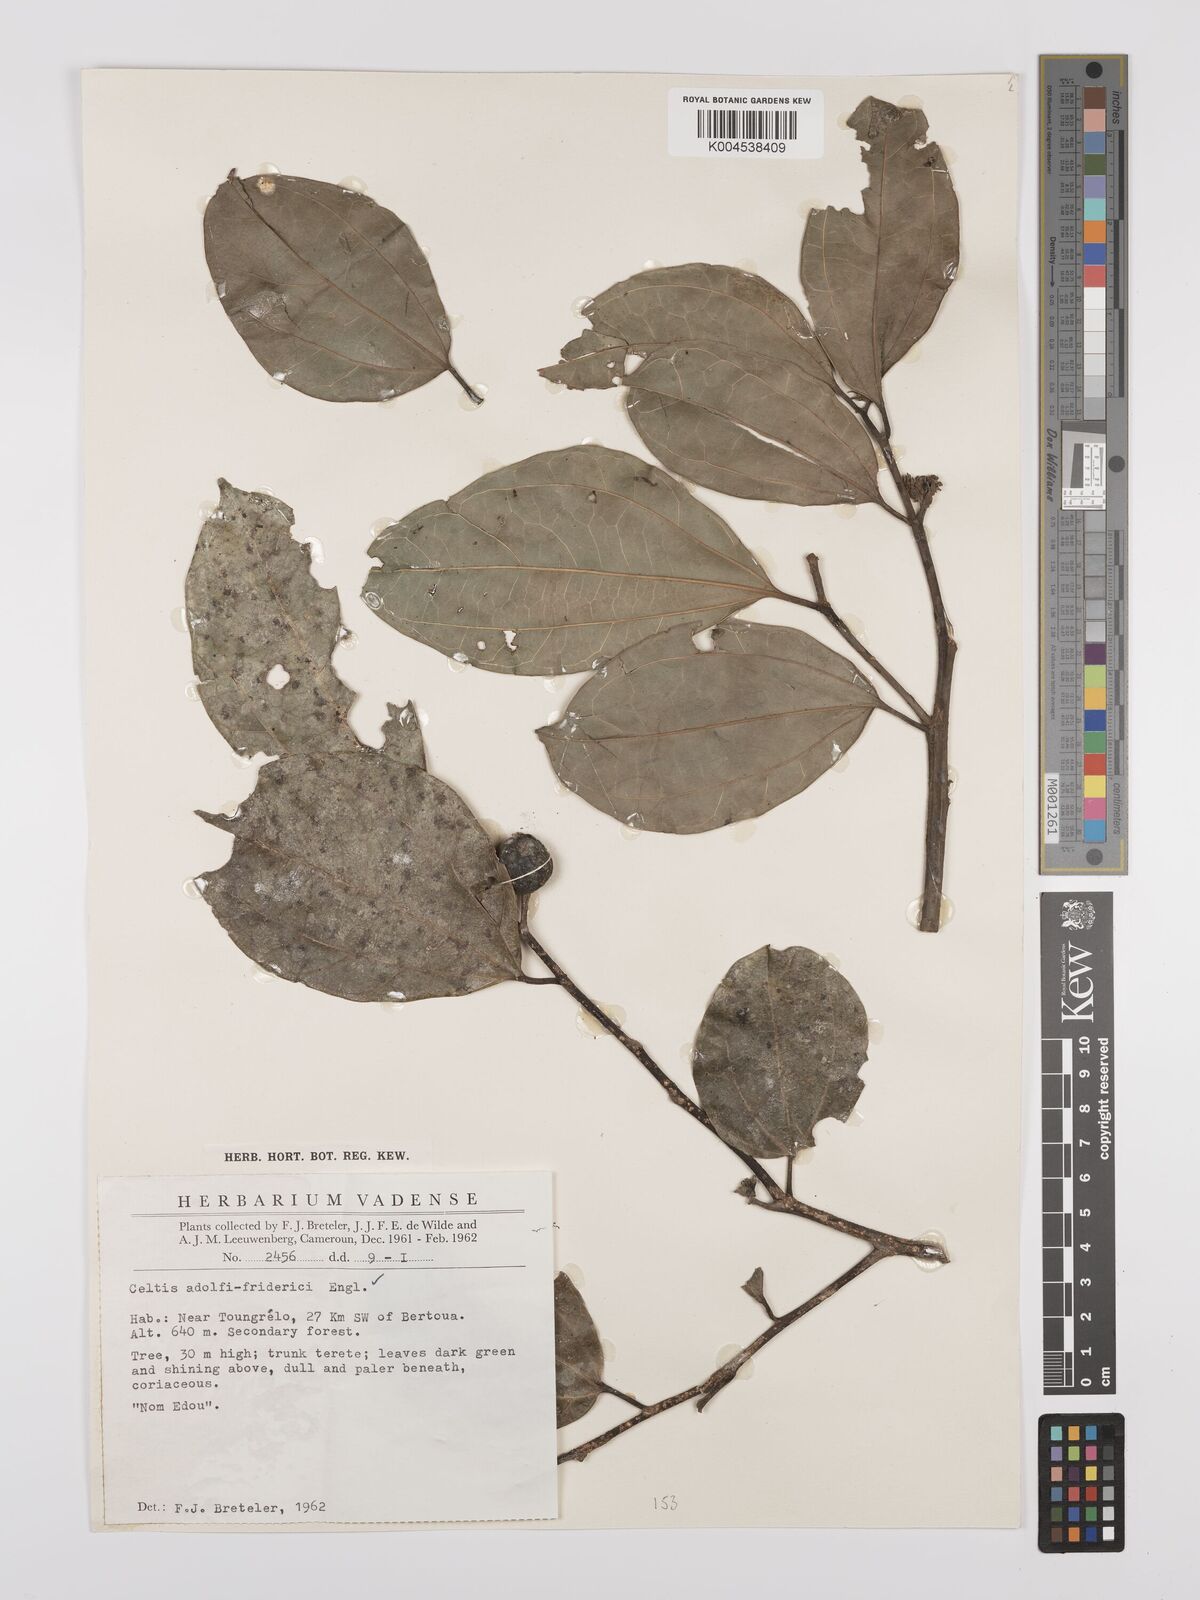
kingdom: Plantae
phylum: Tracheophyta
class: Magnoliopsida
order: Rosales
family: Cannabaceae
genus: Celtis
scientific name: Celtis adolfi-friderici
